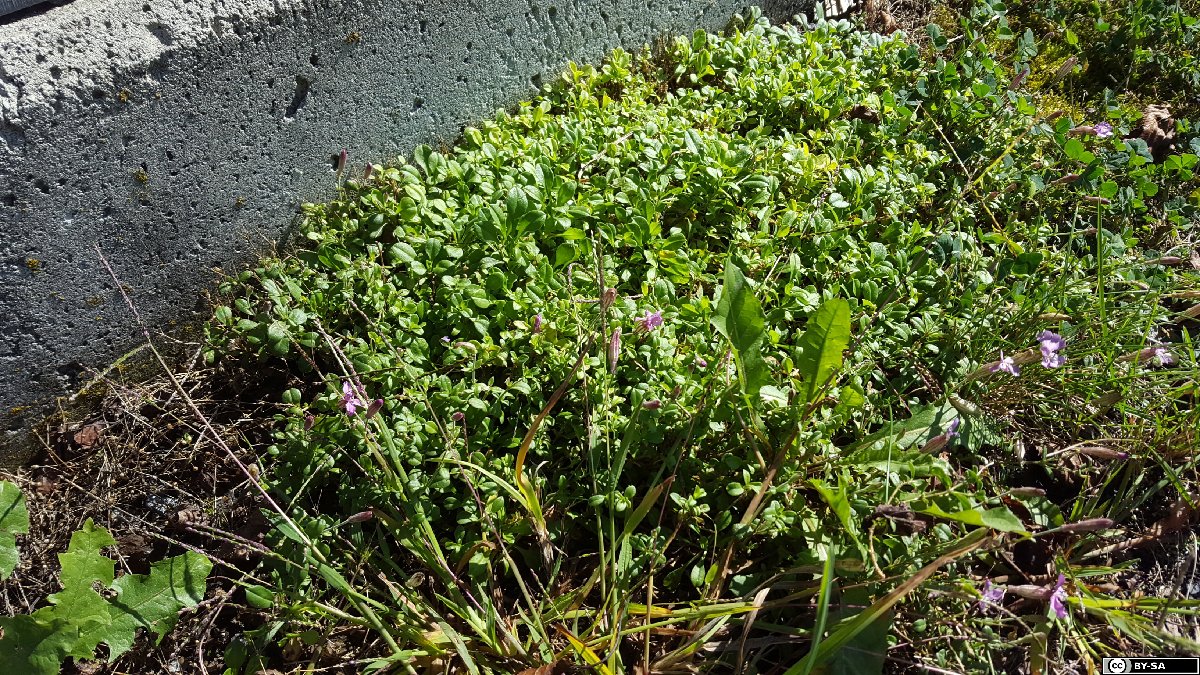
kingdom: Plantae
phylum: Tracheophyta
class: Magnoliopsida
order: Caryophyllales
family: Caryophyllaceae
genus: Silene
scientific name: Silene schafta
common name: Caucasian campion
